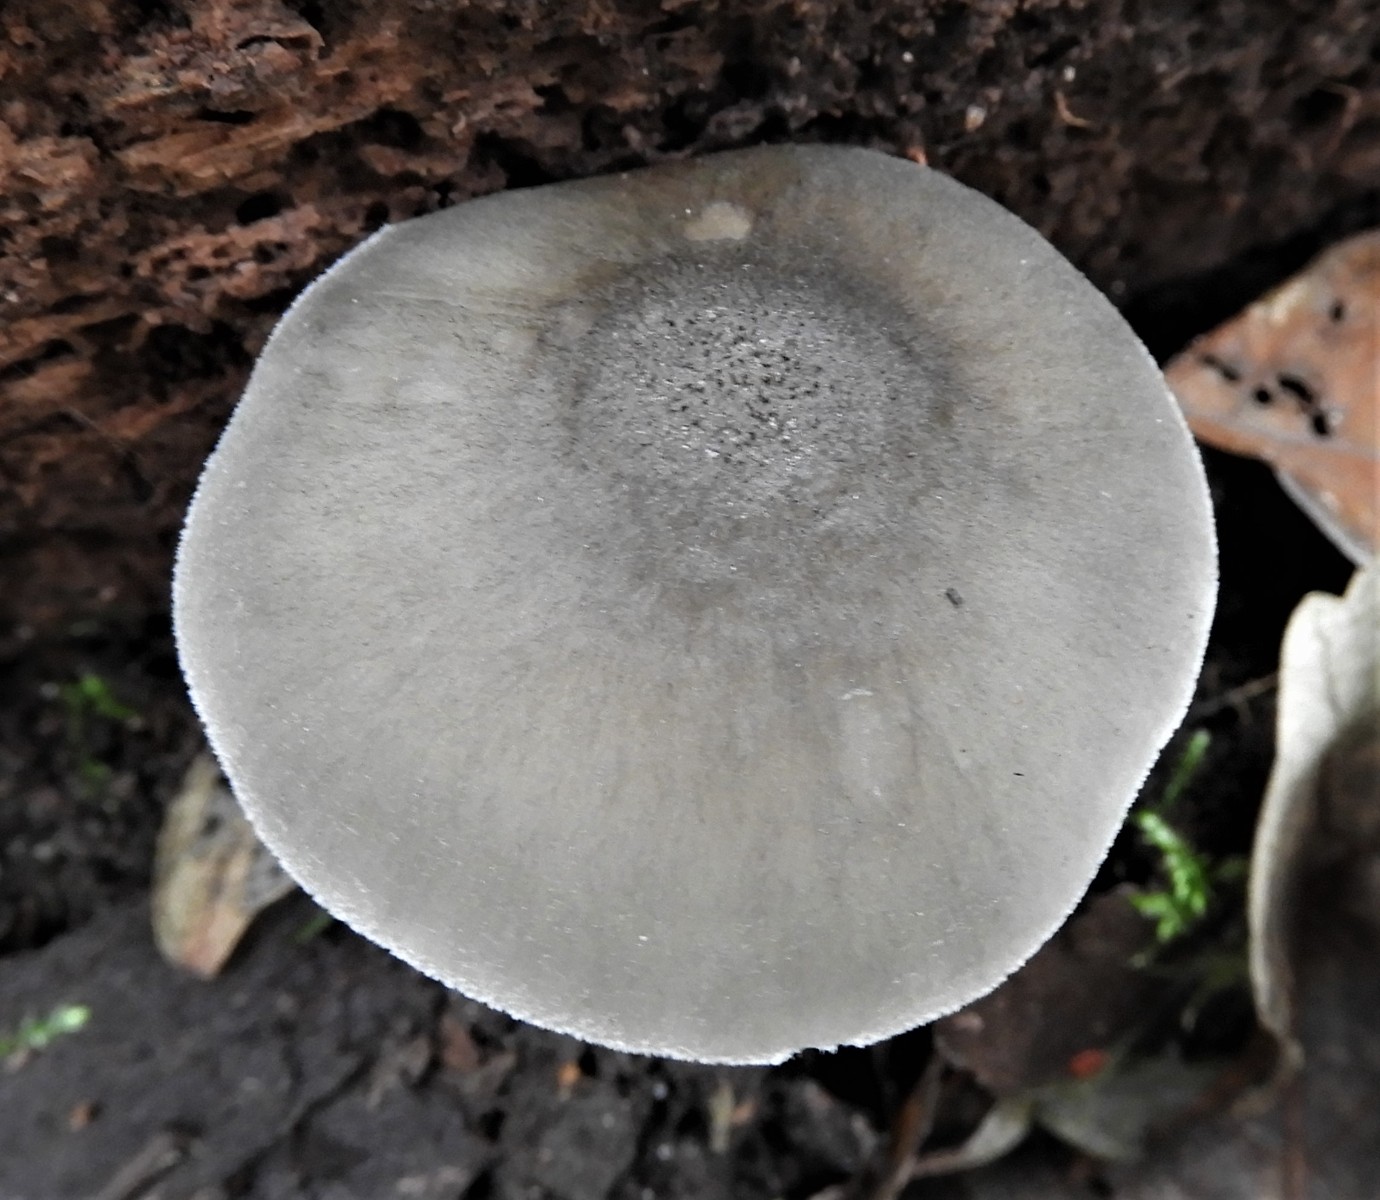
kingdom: Fungi
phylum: Basidiomycota
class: Agaricomycetes
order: Agaricales
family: Pluteaceae
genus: Pluteus
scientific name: Pluteus salicinus
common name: stiv skærmhat
